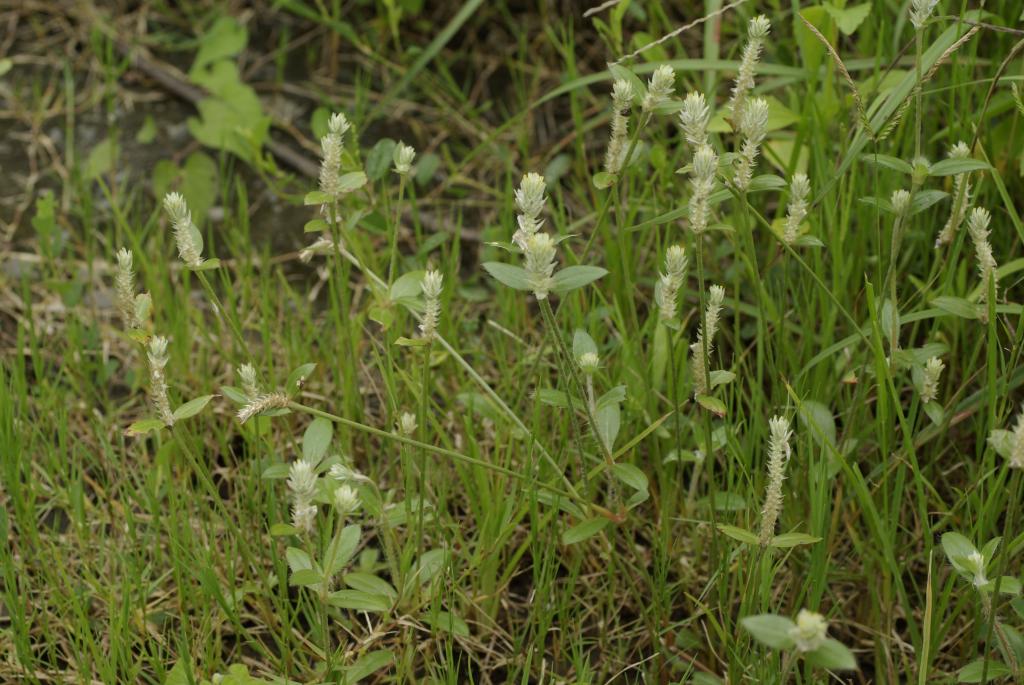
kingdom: Plantae
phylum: Tracheophyta
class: Magnoliopsida
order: Caryophyllales
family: Amaranthaceae
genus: Gomphrena
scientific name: Gomphrena celosioides
